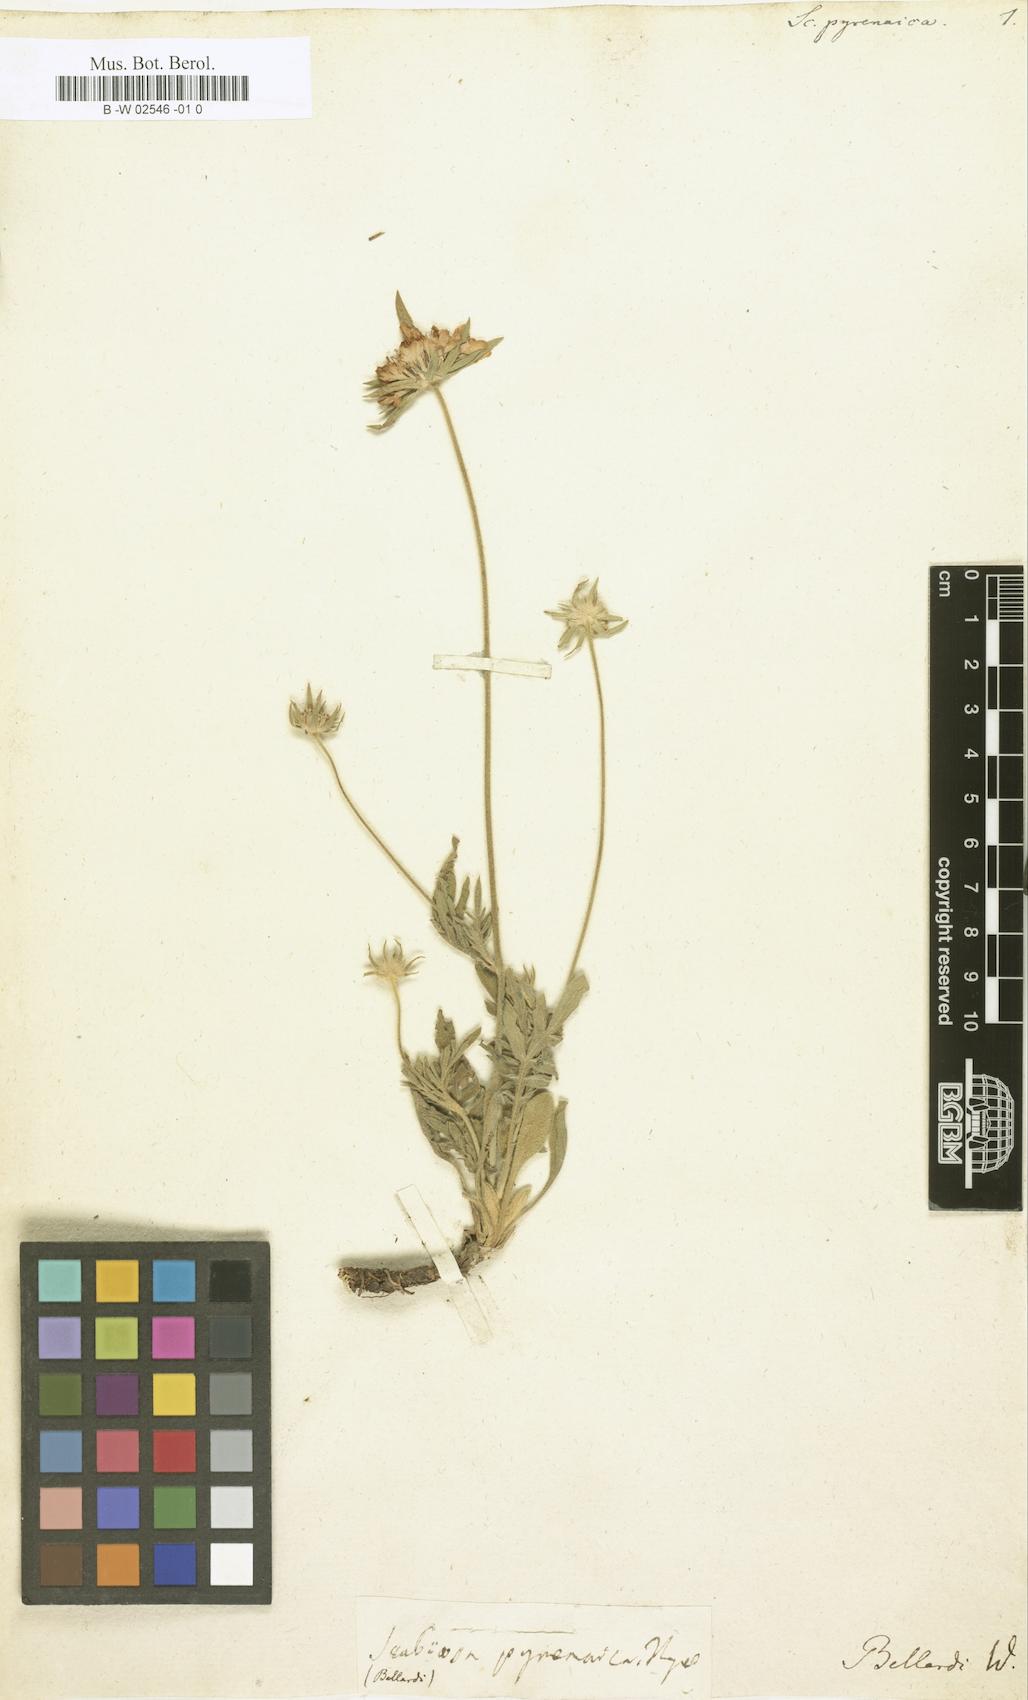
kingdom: Plantae
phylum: Tracheophyta
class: Magnoliopsida
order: Dipsacales
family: Caprifoliaceae
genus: Scabiosa
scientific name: Scabiosa pyrenaica
